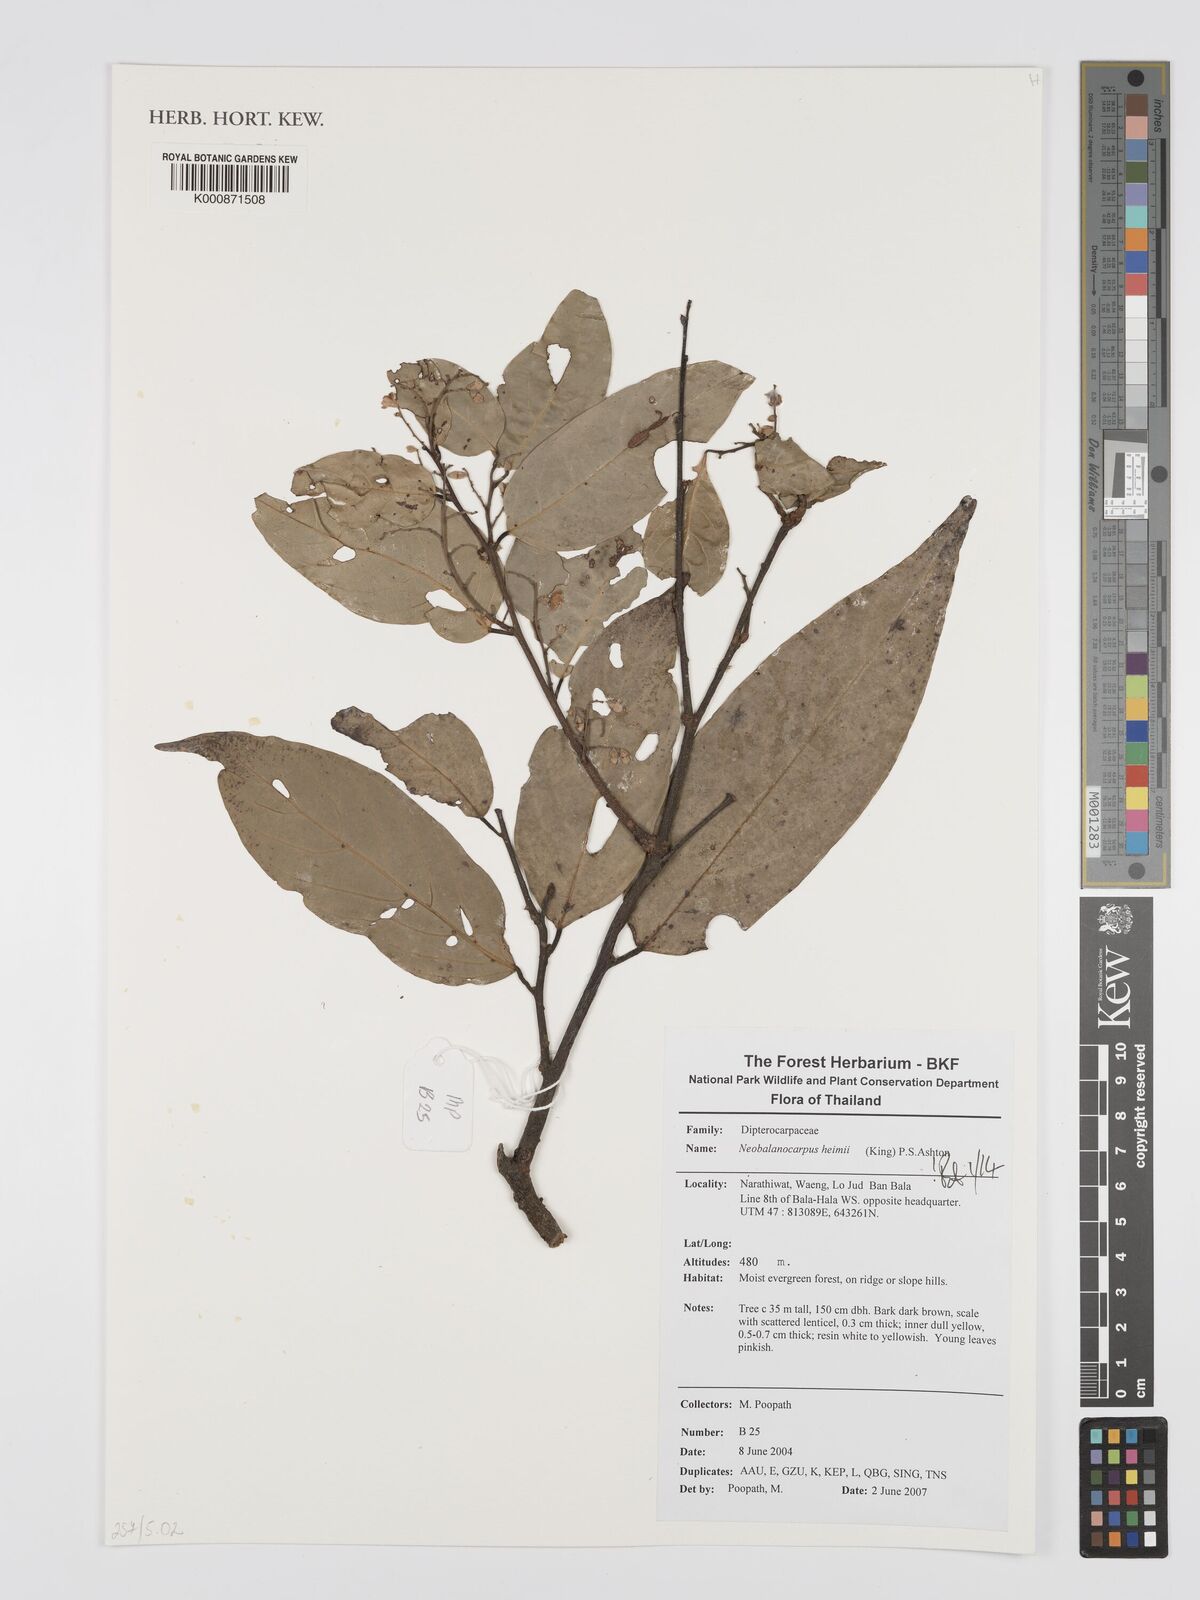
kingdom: Plantae
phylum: Tracheophyta
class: Magnoliopsida
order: Malvales
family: Dipterocarpaceae
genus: Neobalanocarpus
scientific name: Neobalanocarpus
